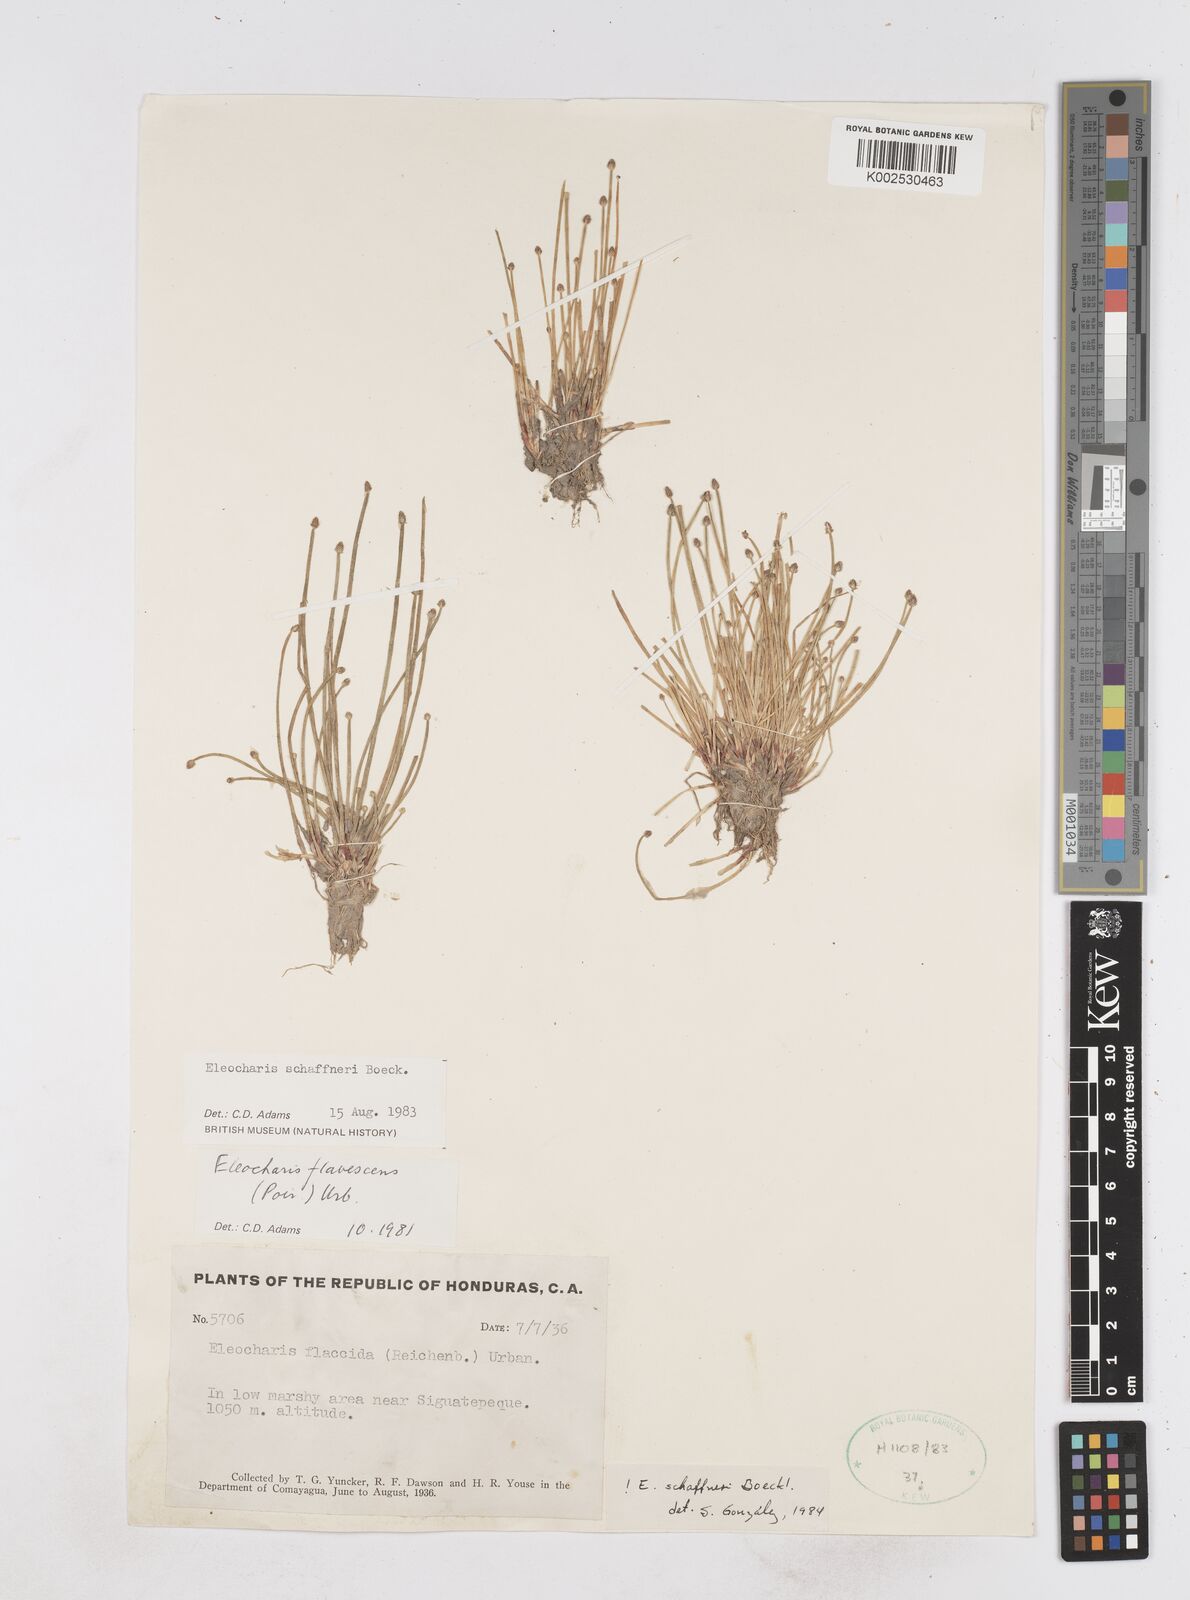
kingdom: Plantae
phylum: Tracheophyta
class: Liliopsida
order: Poales
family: Cyperaceae
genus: Eleocharis
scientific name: Eleocharis flavescens
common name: Yellow spikerush
